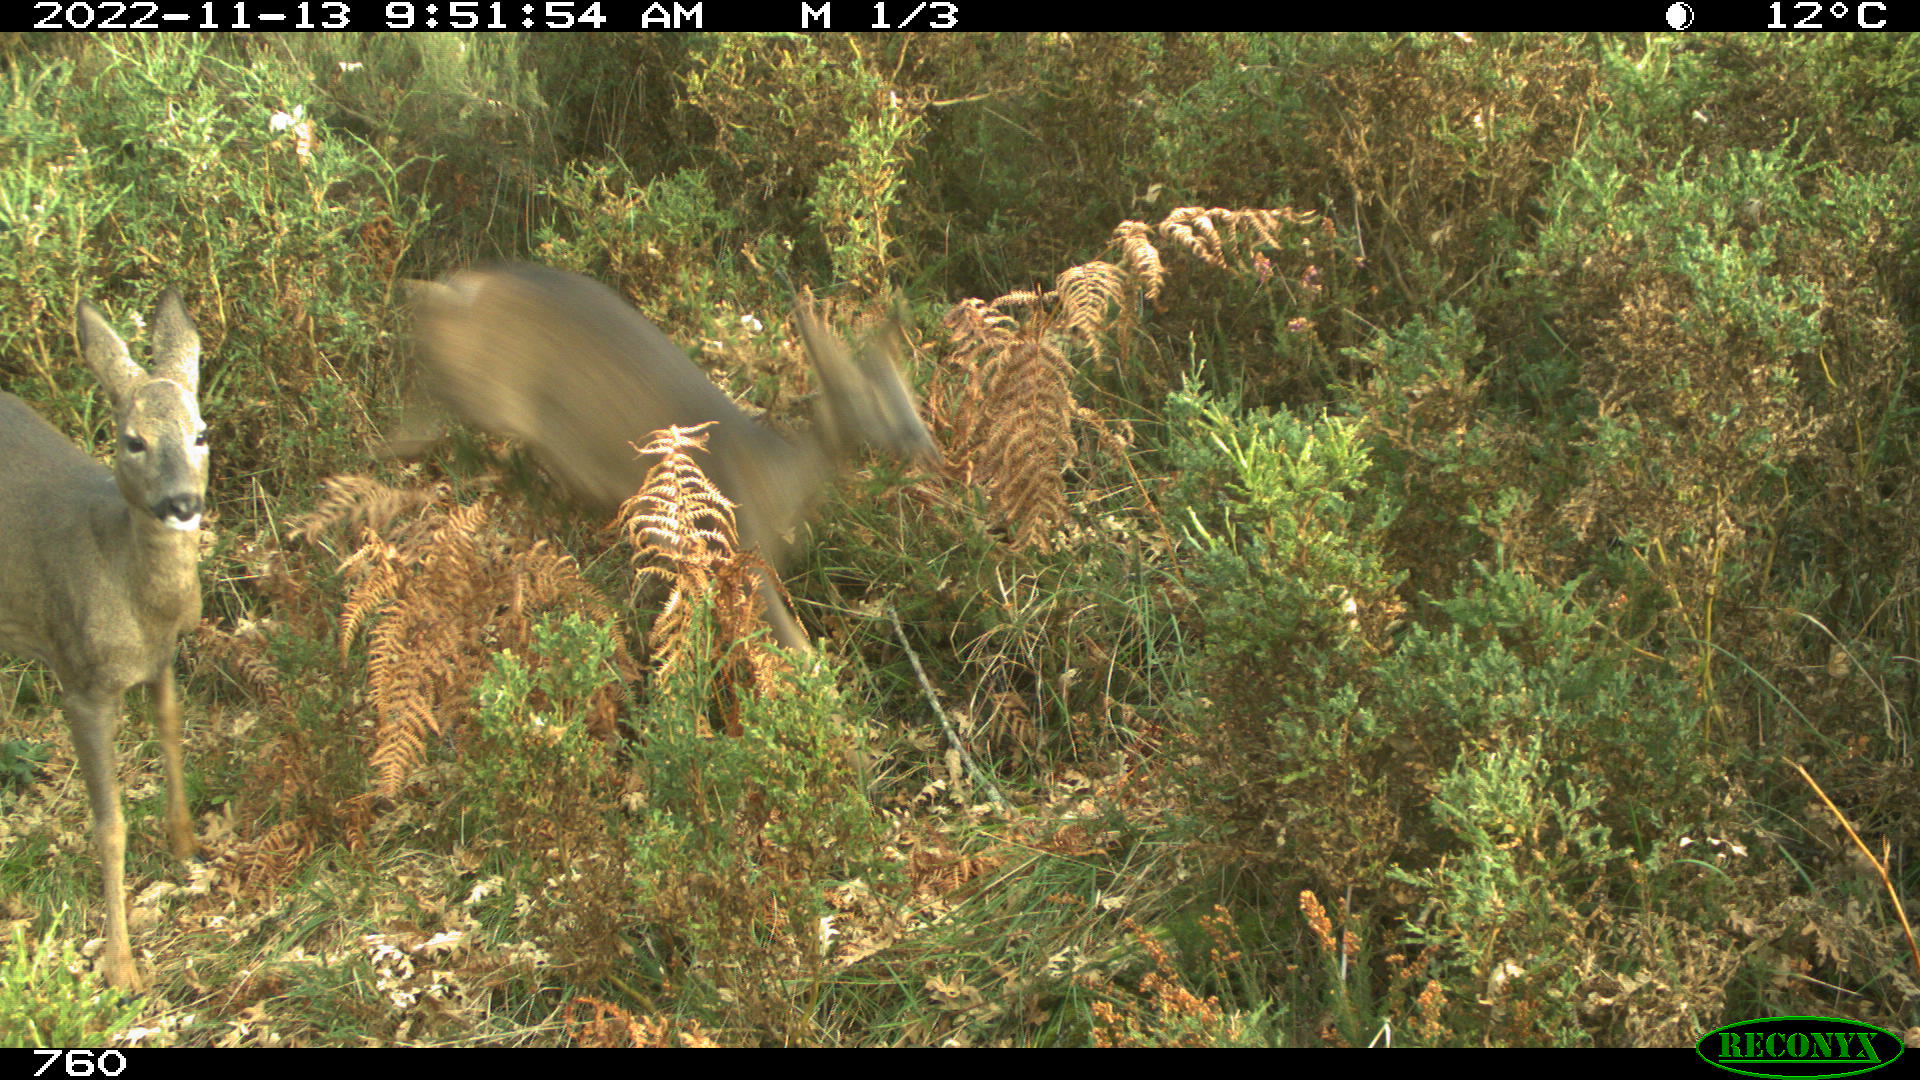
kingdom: Animalia
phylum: Chordata
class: Mammalia
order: Artiodactyla
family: Cervidae
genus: Capreolus
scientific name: Capreolus capreolus
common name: Western roe deer
